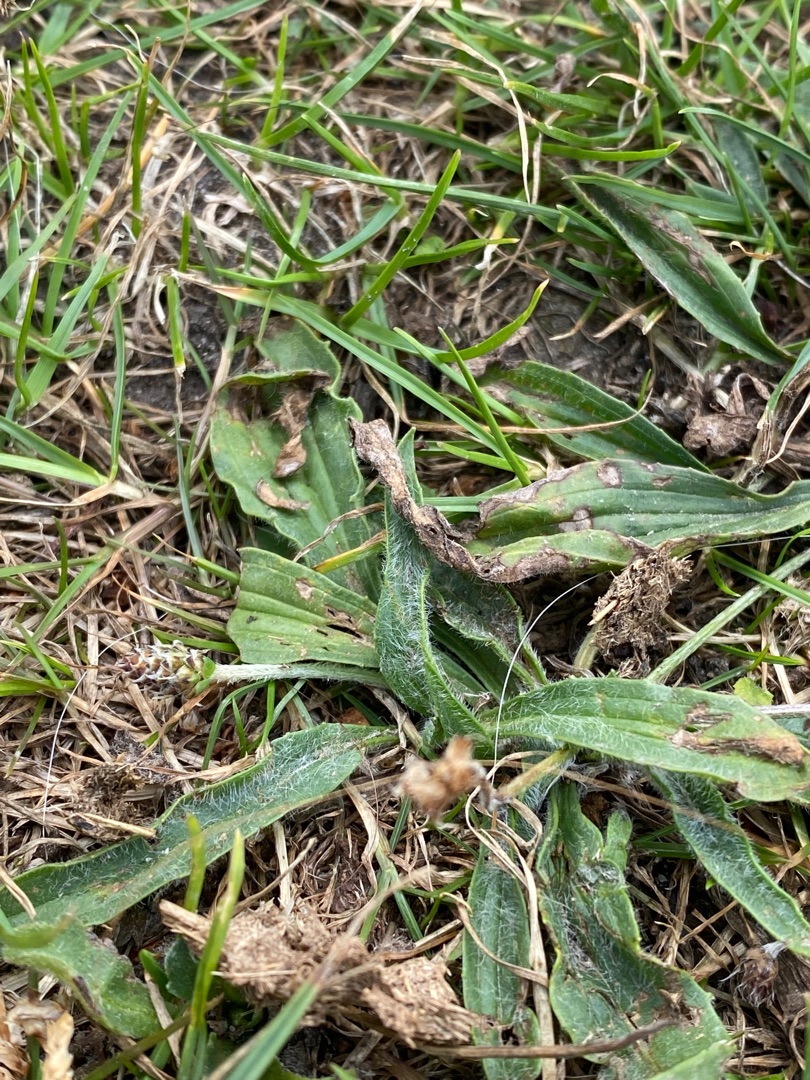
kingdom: Plantae
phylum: Tracheophyta
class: Magnoliopsida
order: Lamiales
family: Plantaginaceae
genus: Plantago
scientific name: Plantago lanceolata
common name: Lancet-vejbred
